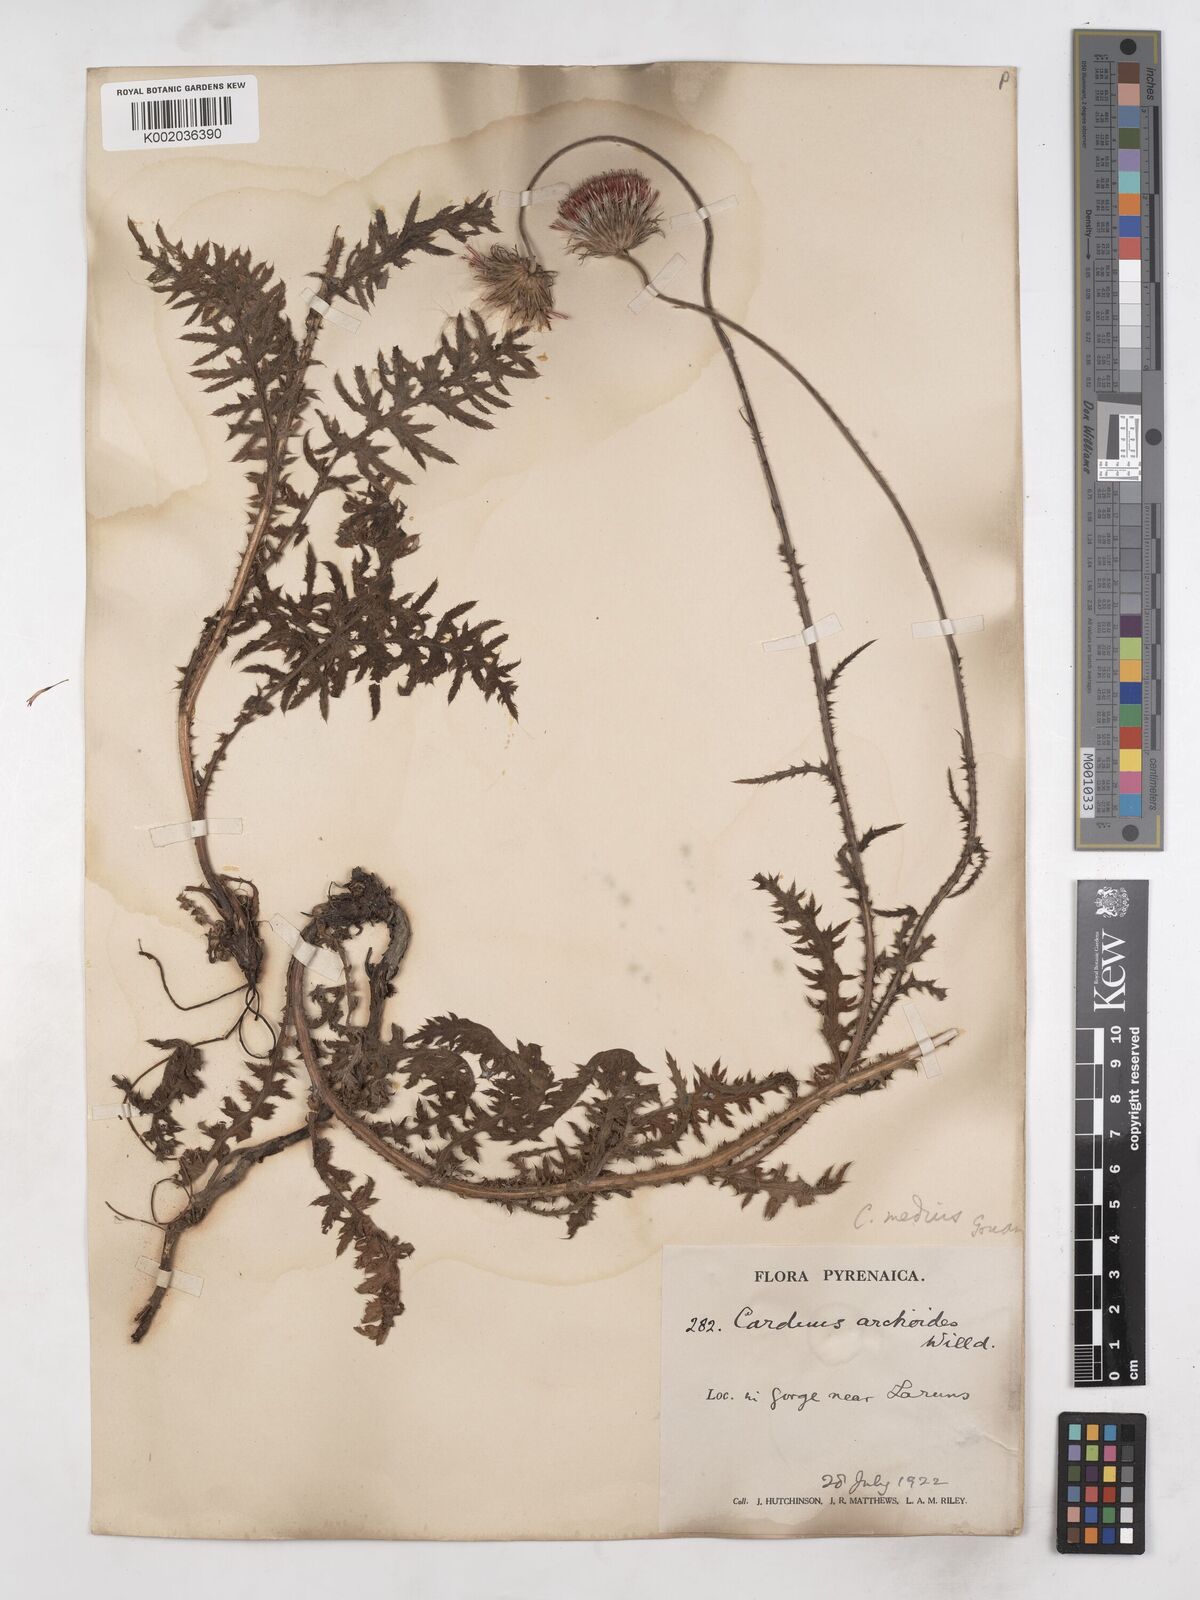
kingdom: Plantae
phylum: Tracheophyta
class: Magnoliopsida
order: Asterales
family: Asteraceae
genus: Carduus
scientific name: Carduus defloratus
